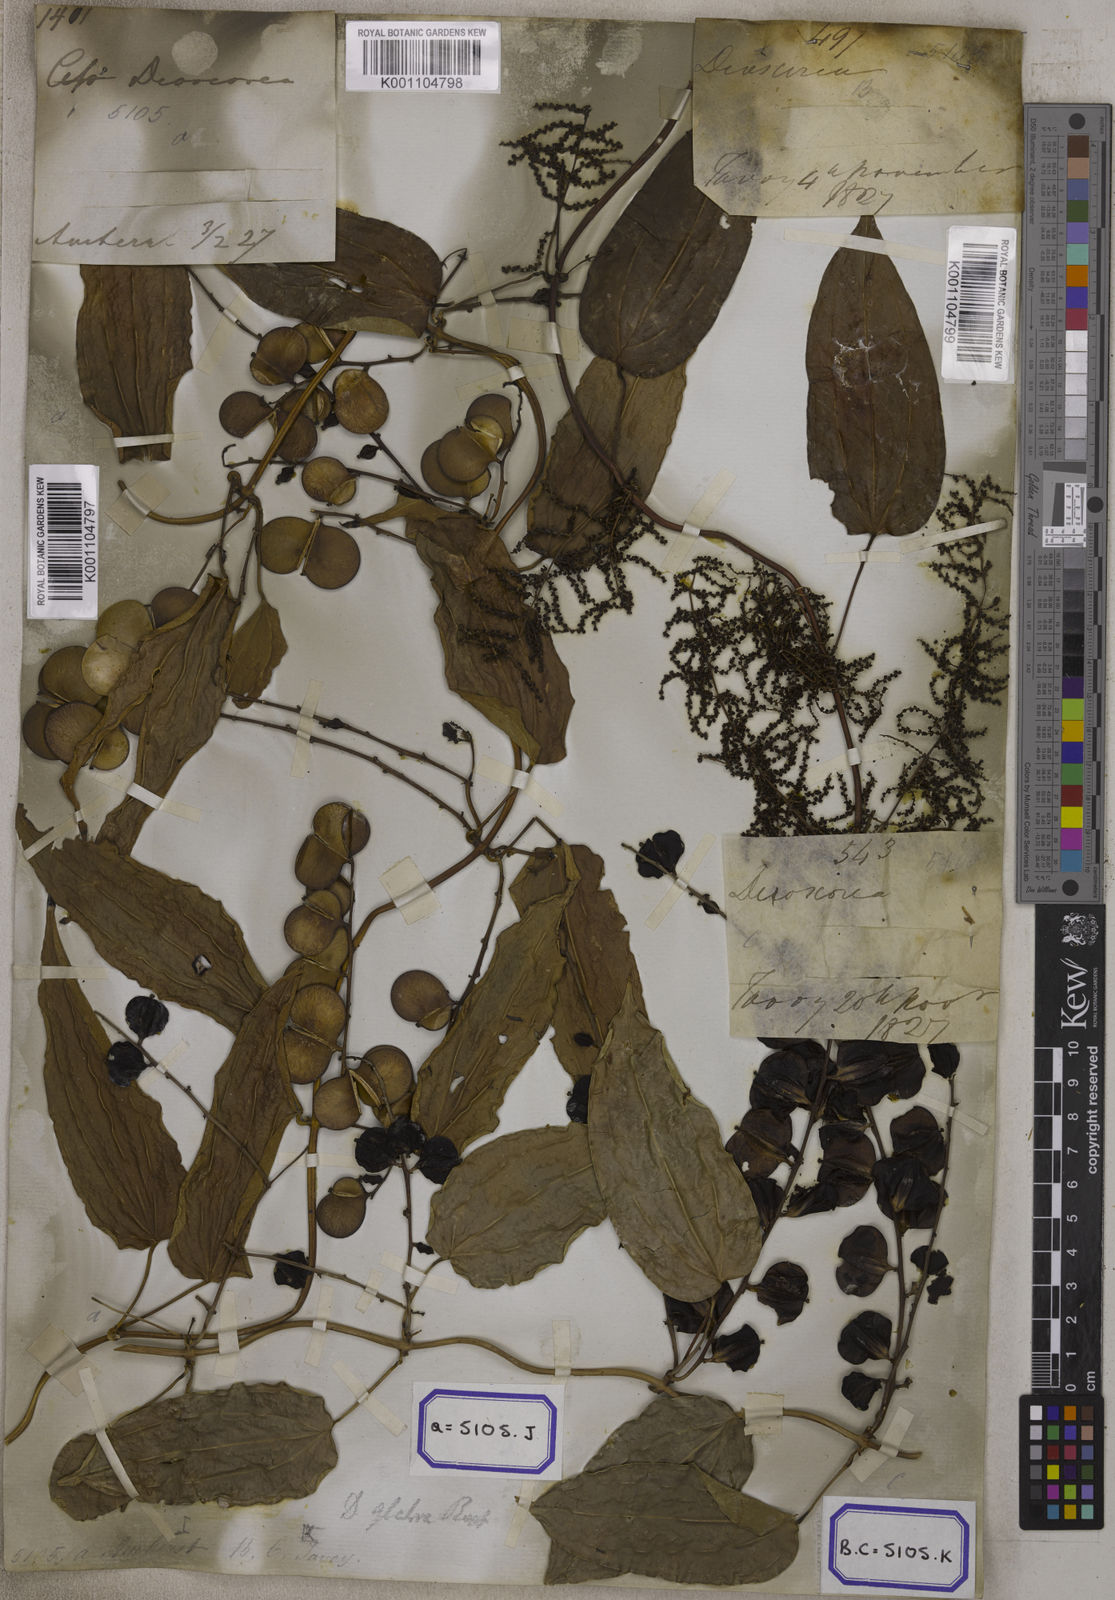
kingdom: Plantae
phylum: Tracheophyta
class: Liliopsida
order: Dioscoreales
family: Dioscoreaceae
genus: Dioscorea
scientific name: Dioscorea glabra
